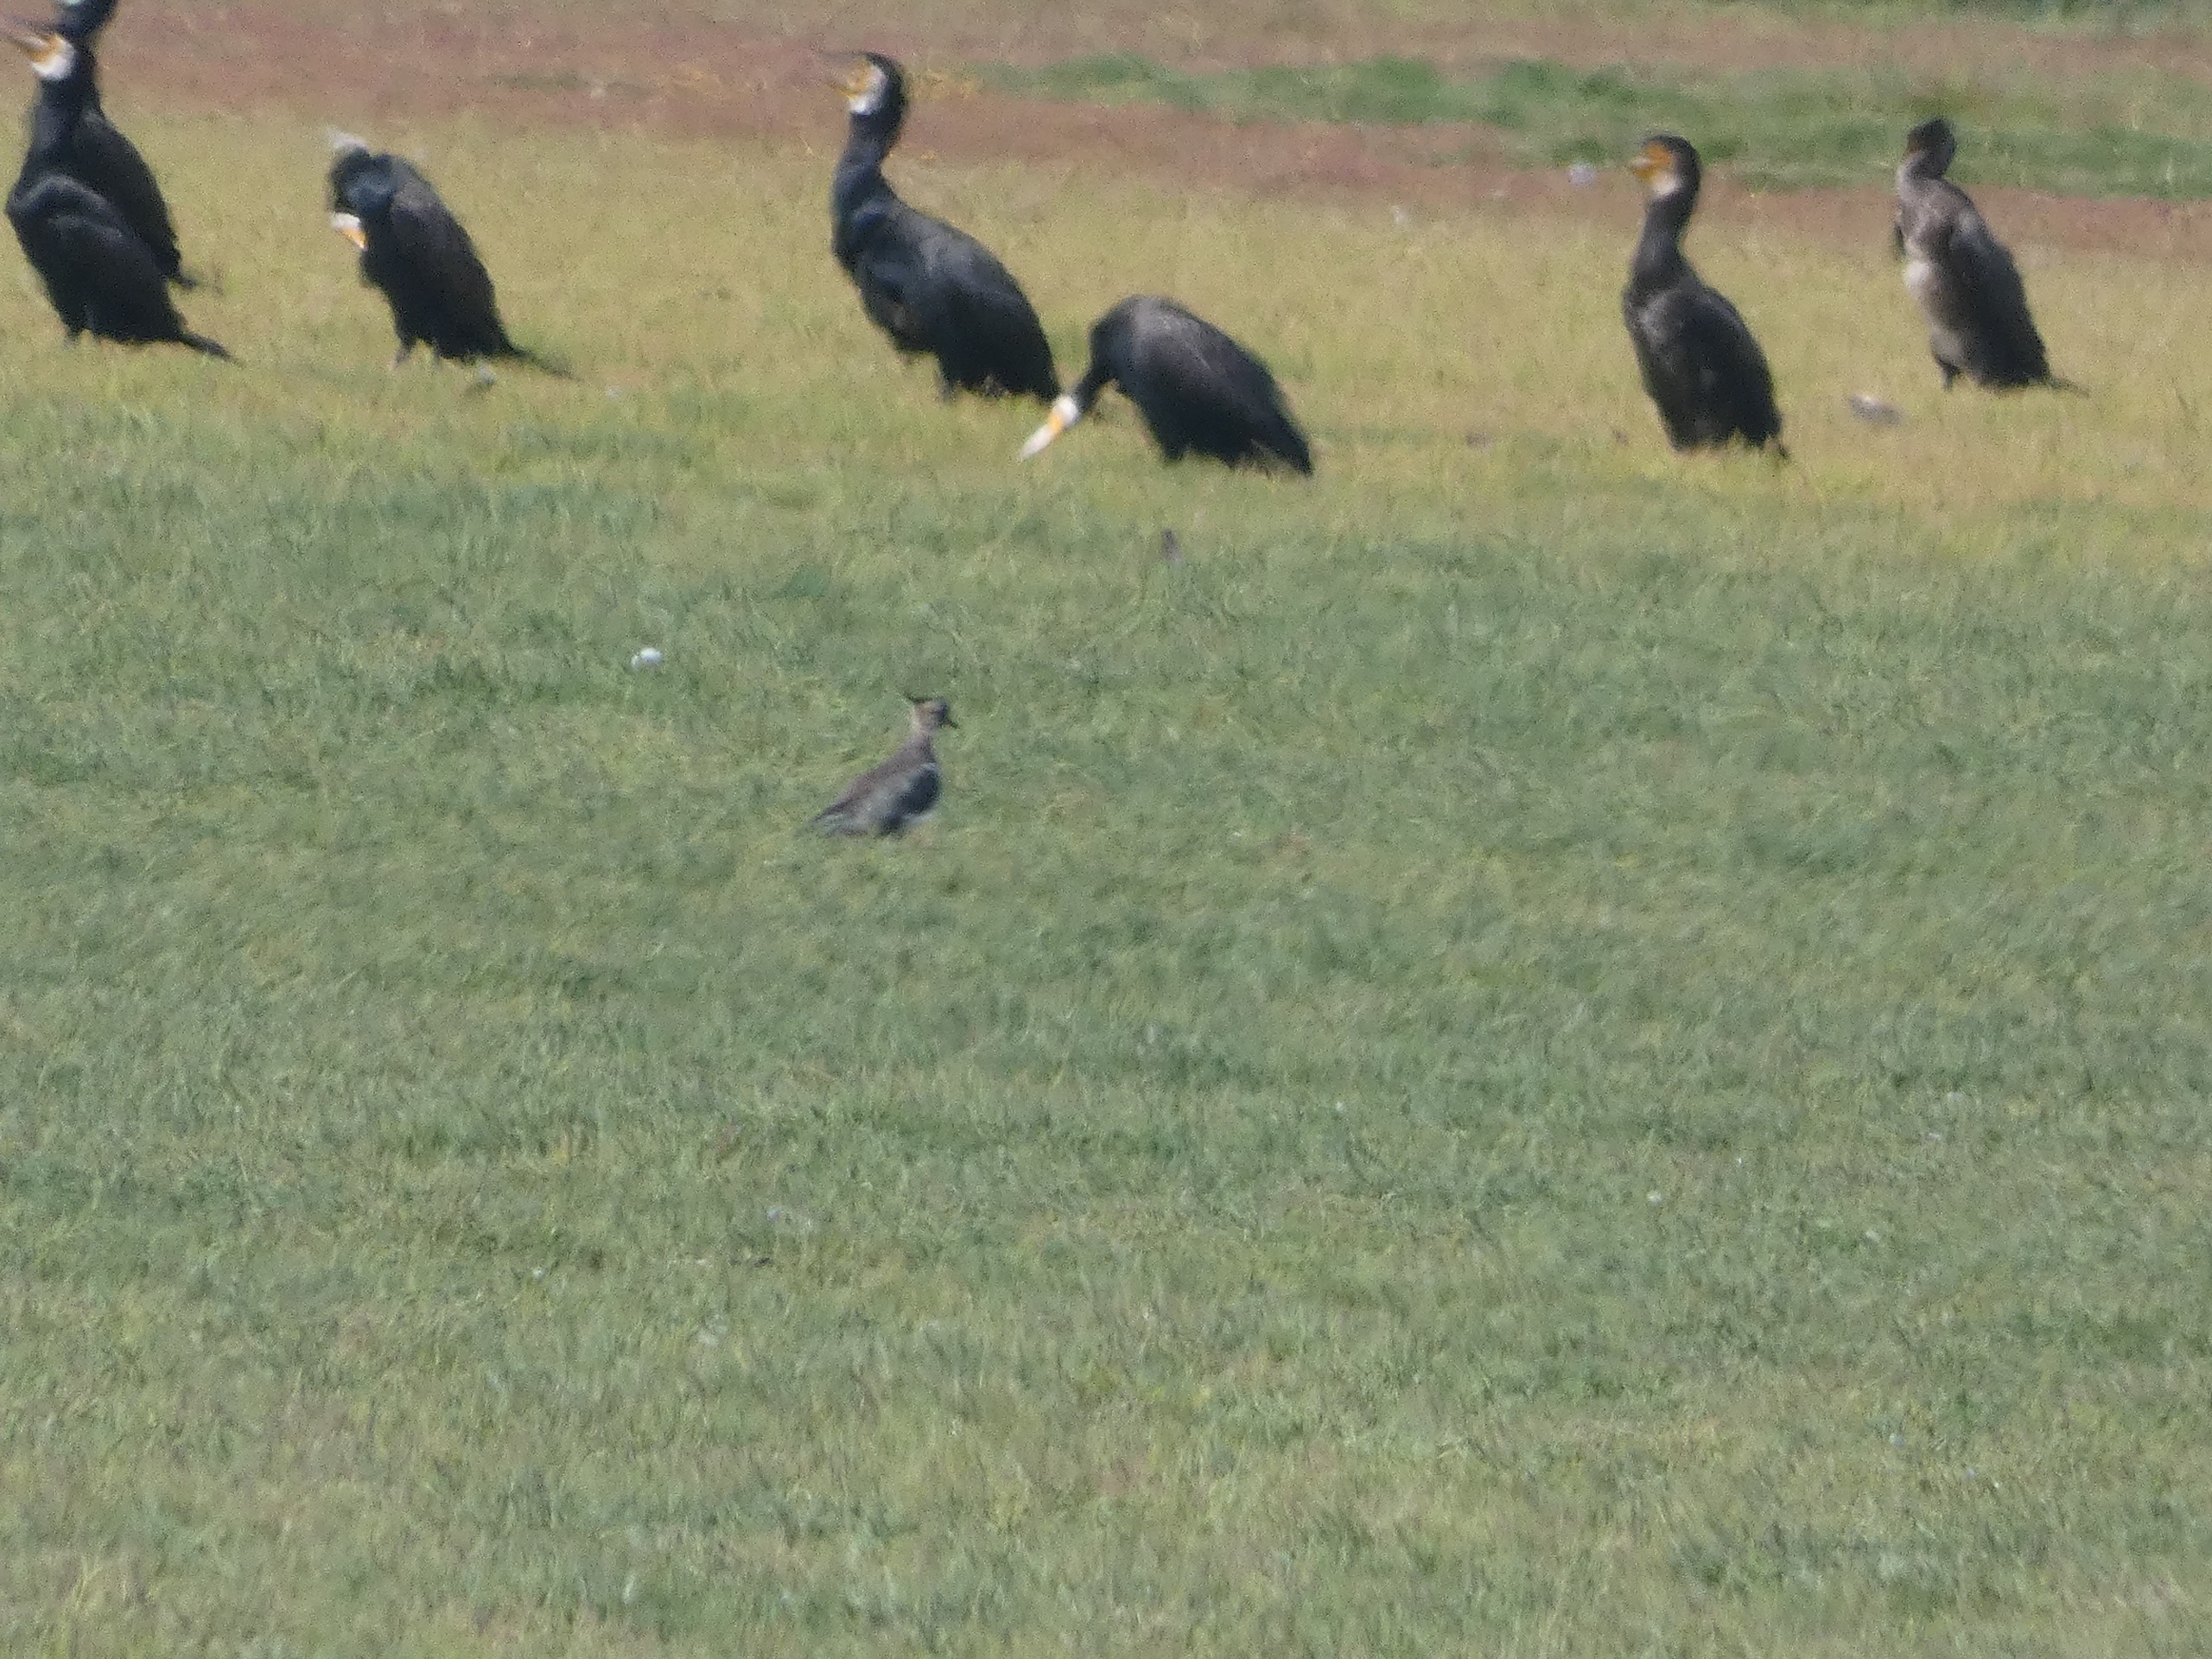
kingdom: Animalia
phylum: Chordata
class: Aves
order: Charadriiformes
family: Charadriidae
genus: Vanellus
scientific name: Vanellus vanellus
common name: Vibe
